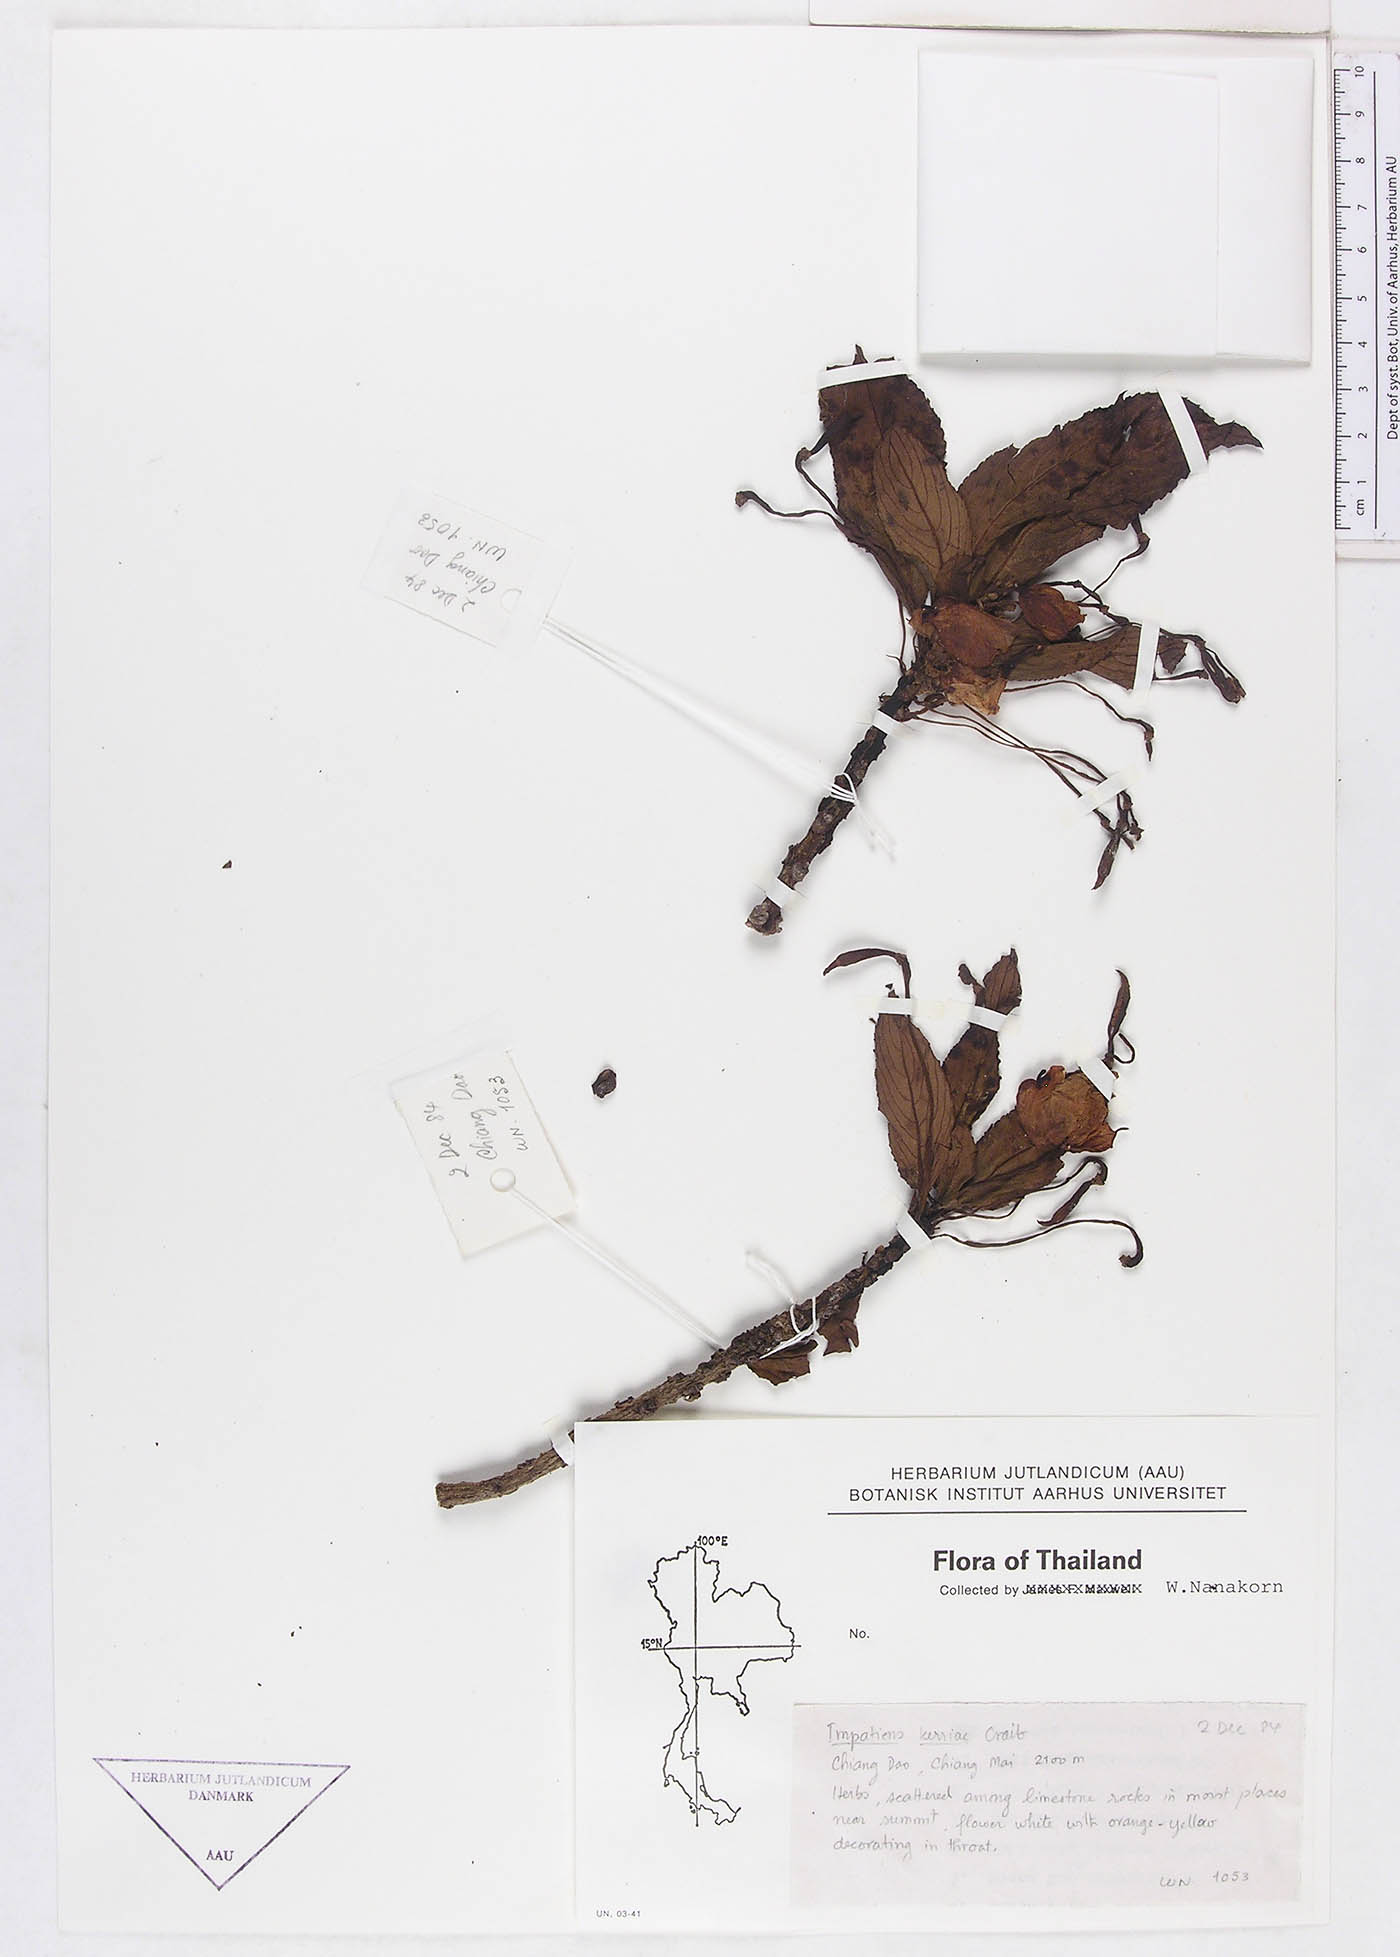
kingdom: Plantae
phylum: Tracheophyta
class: Magnoliopsida
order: Ericales
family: Balsaminaceae
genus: Impatiens
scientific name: Impatiens kerriae
